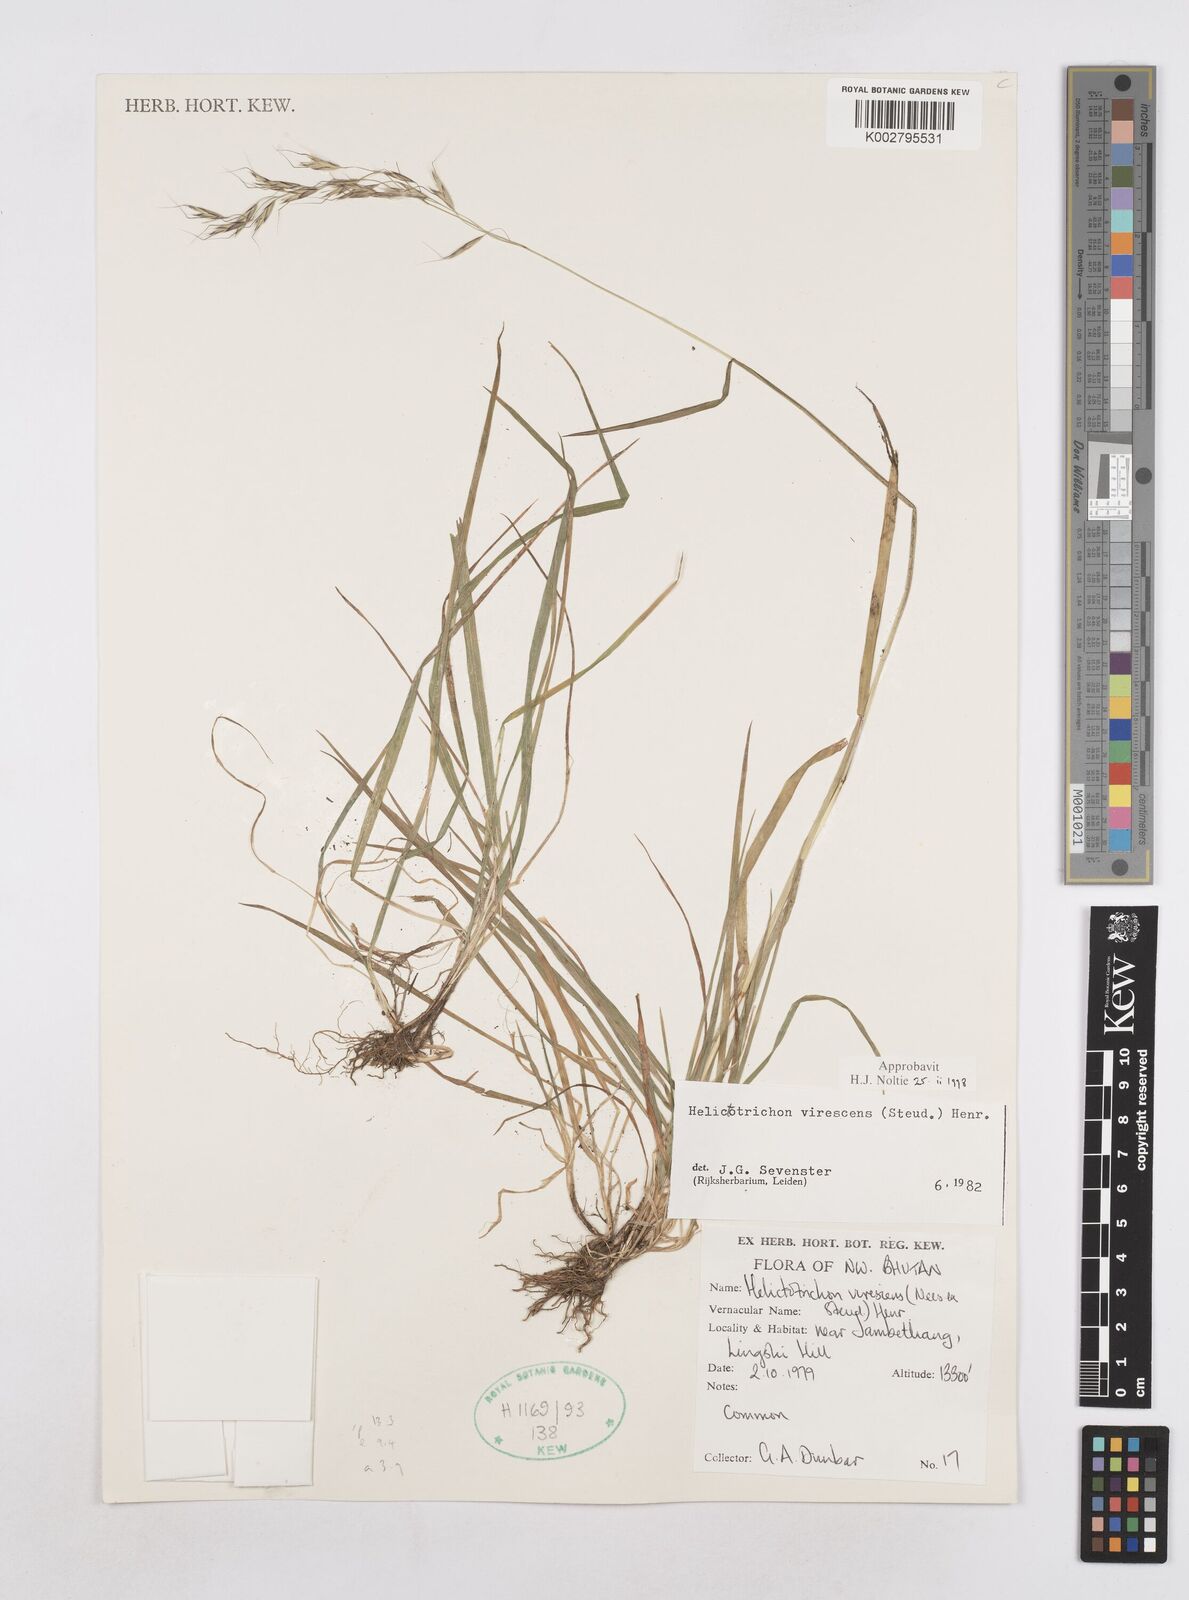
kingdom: Plantae
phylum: Tracheophyta
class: Liliopsida
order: Poales
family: Poaceae
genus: Trisetopsis
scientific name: Trisetopsis junghuhnii
